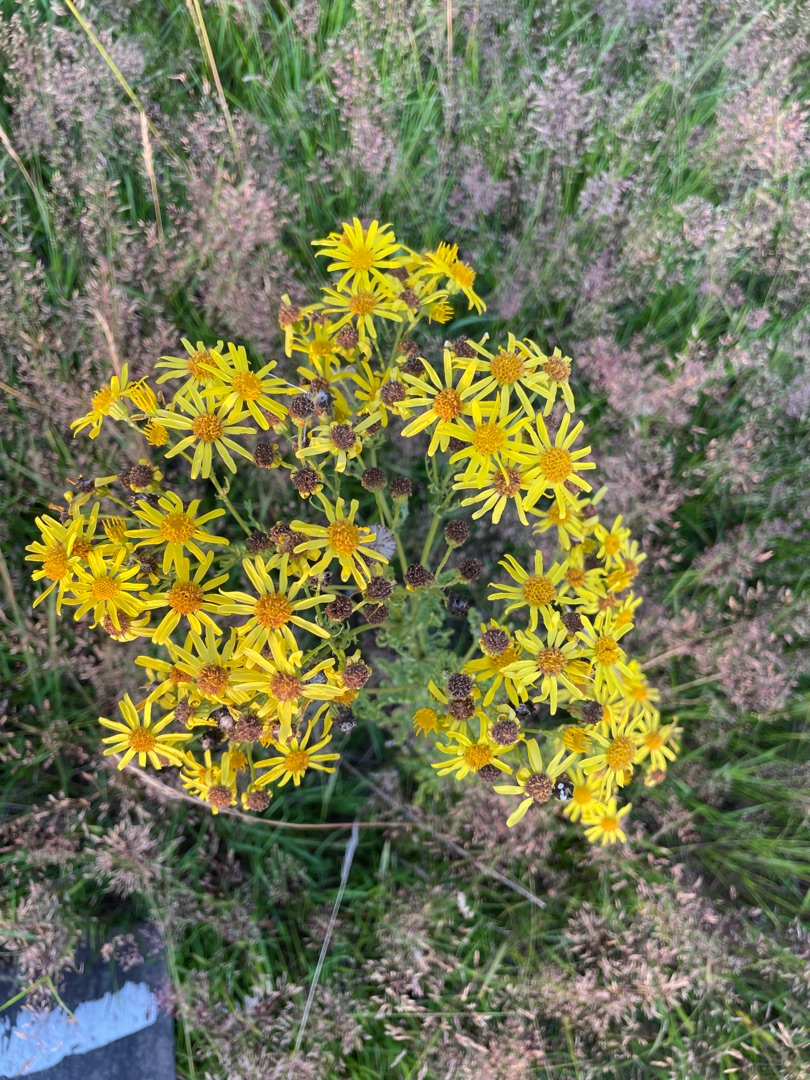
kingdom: Plantae
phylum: Tracheophyta
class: Magnoliopsida
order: Asterales
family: Asteraceae
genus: Jacobaea
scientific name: Jacobaea vulgaris
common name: Eng-brandbæger
